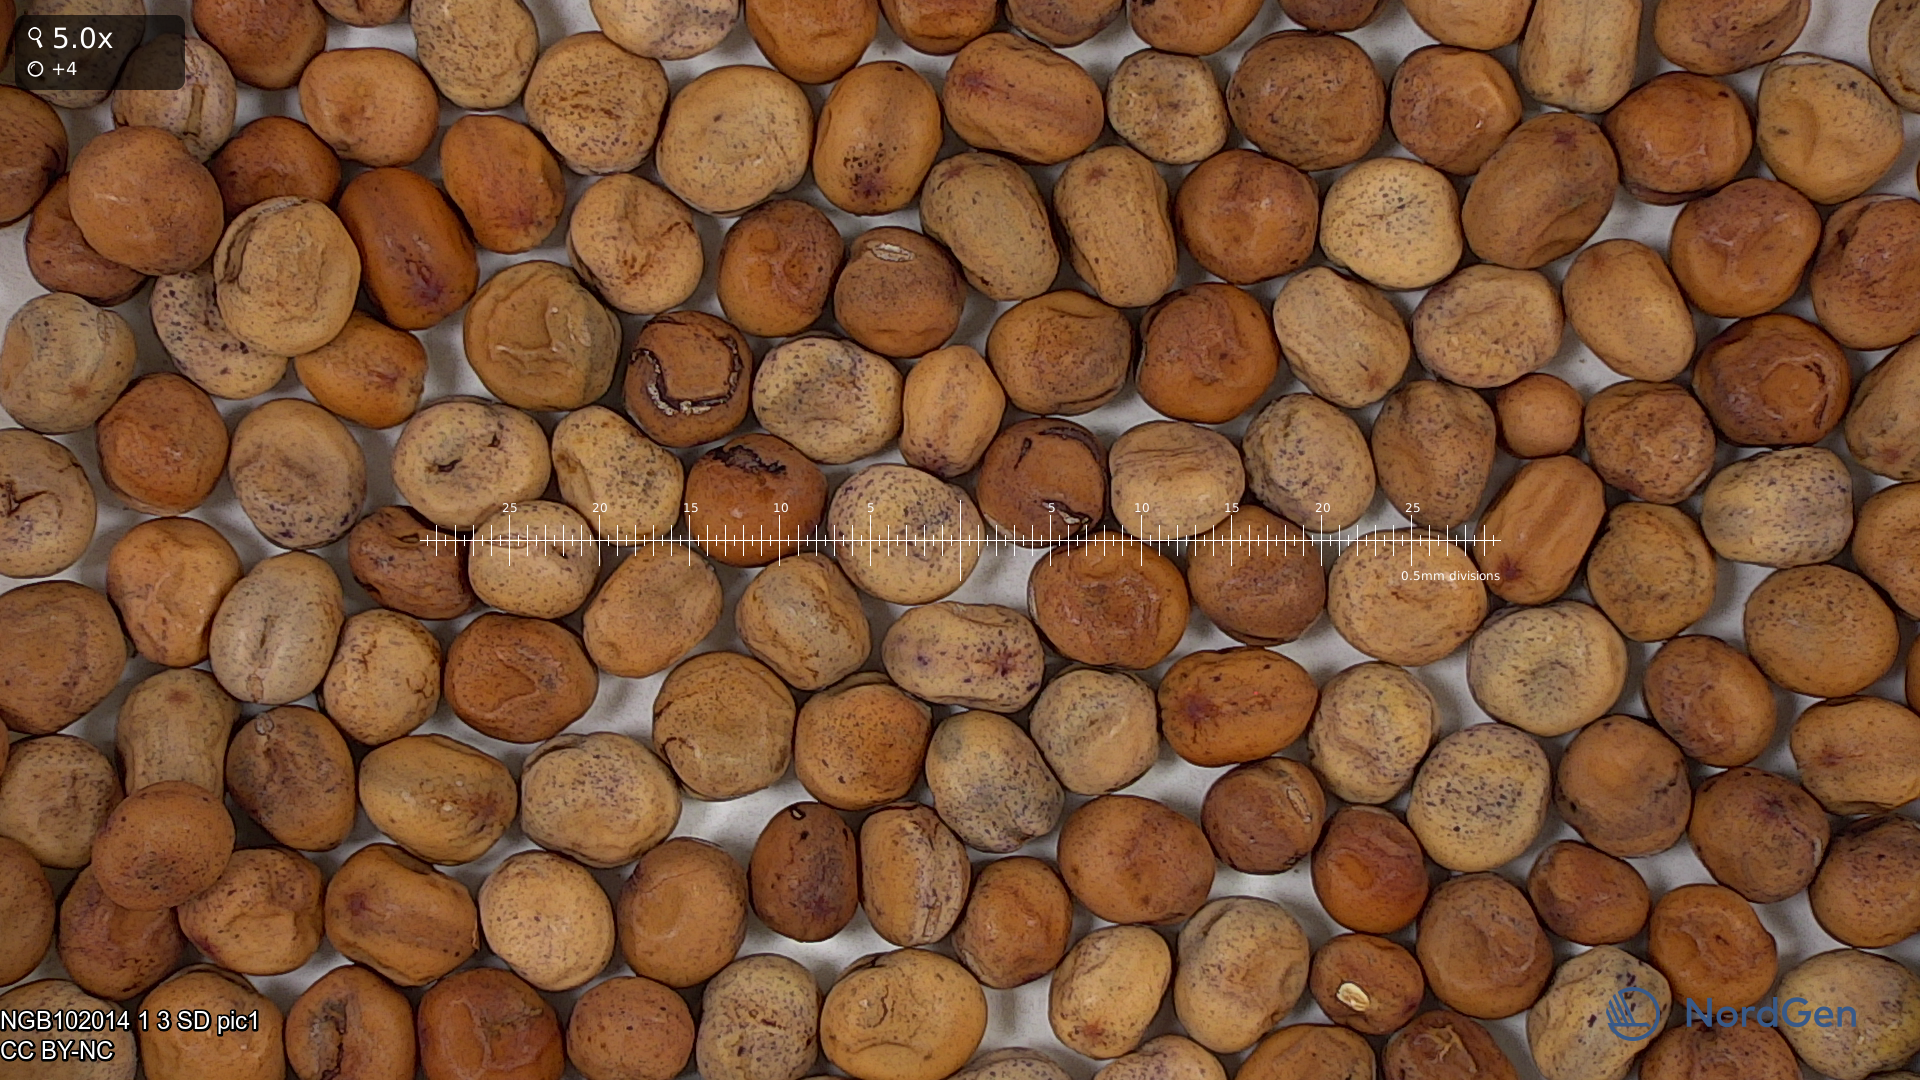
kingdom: Plantae
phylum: Tracheophyta
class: Magnoliopsida
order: Fabales
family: Fabaceae
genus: Lathyrus
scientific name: Lathyrus oleraceus
